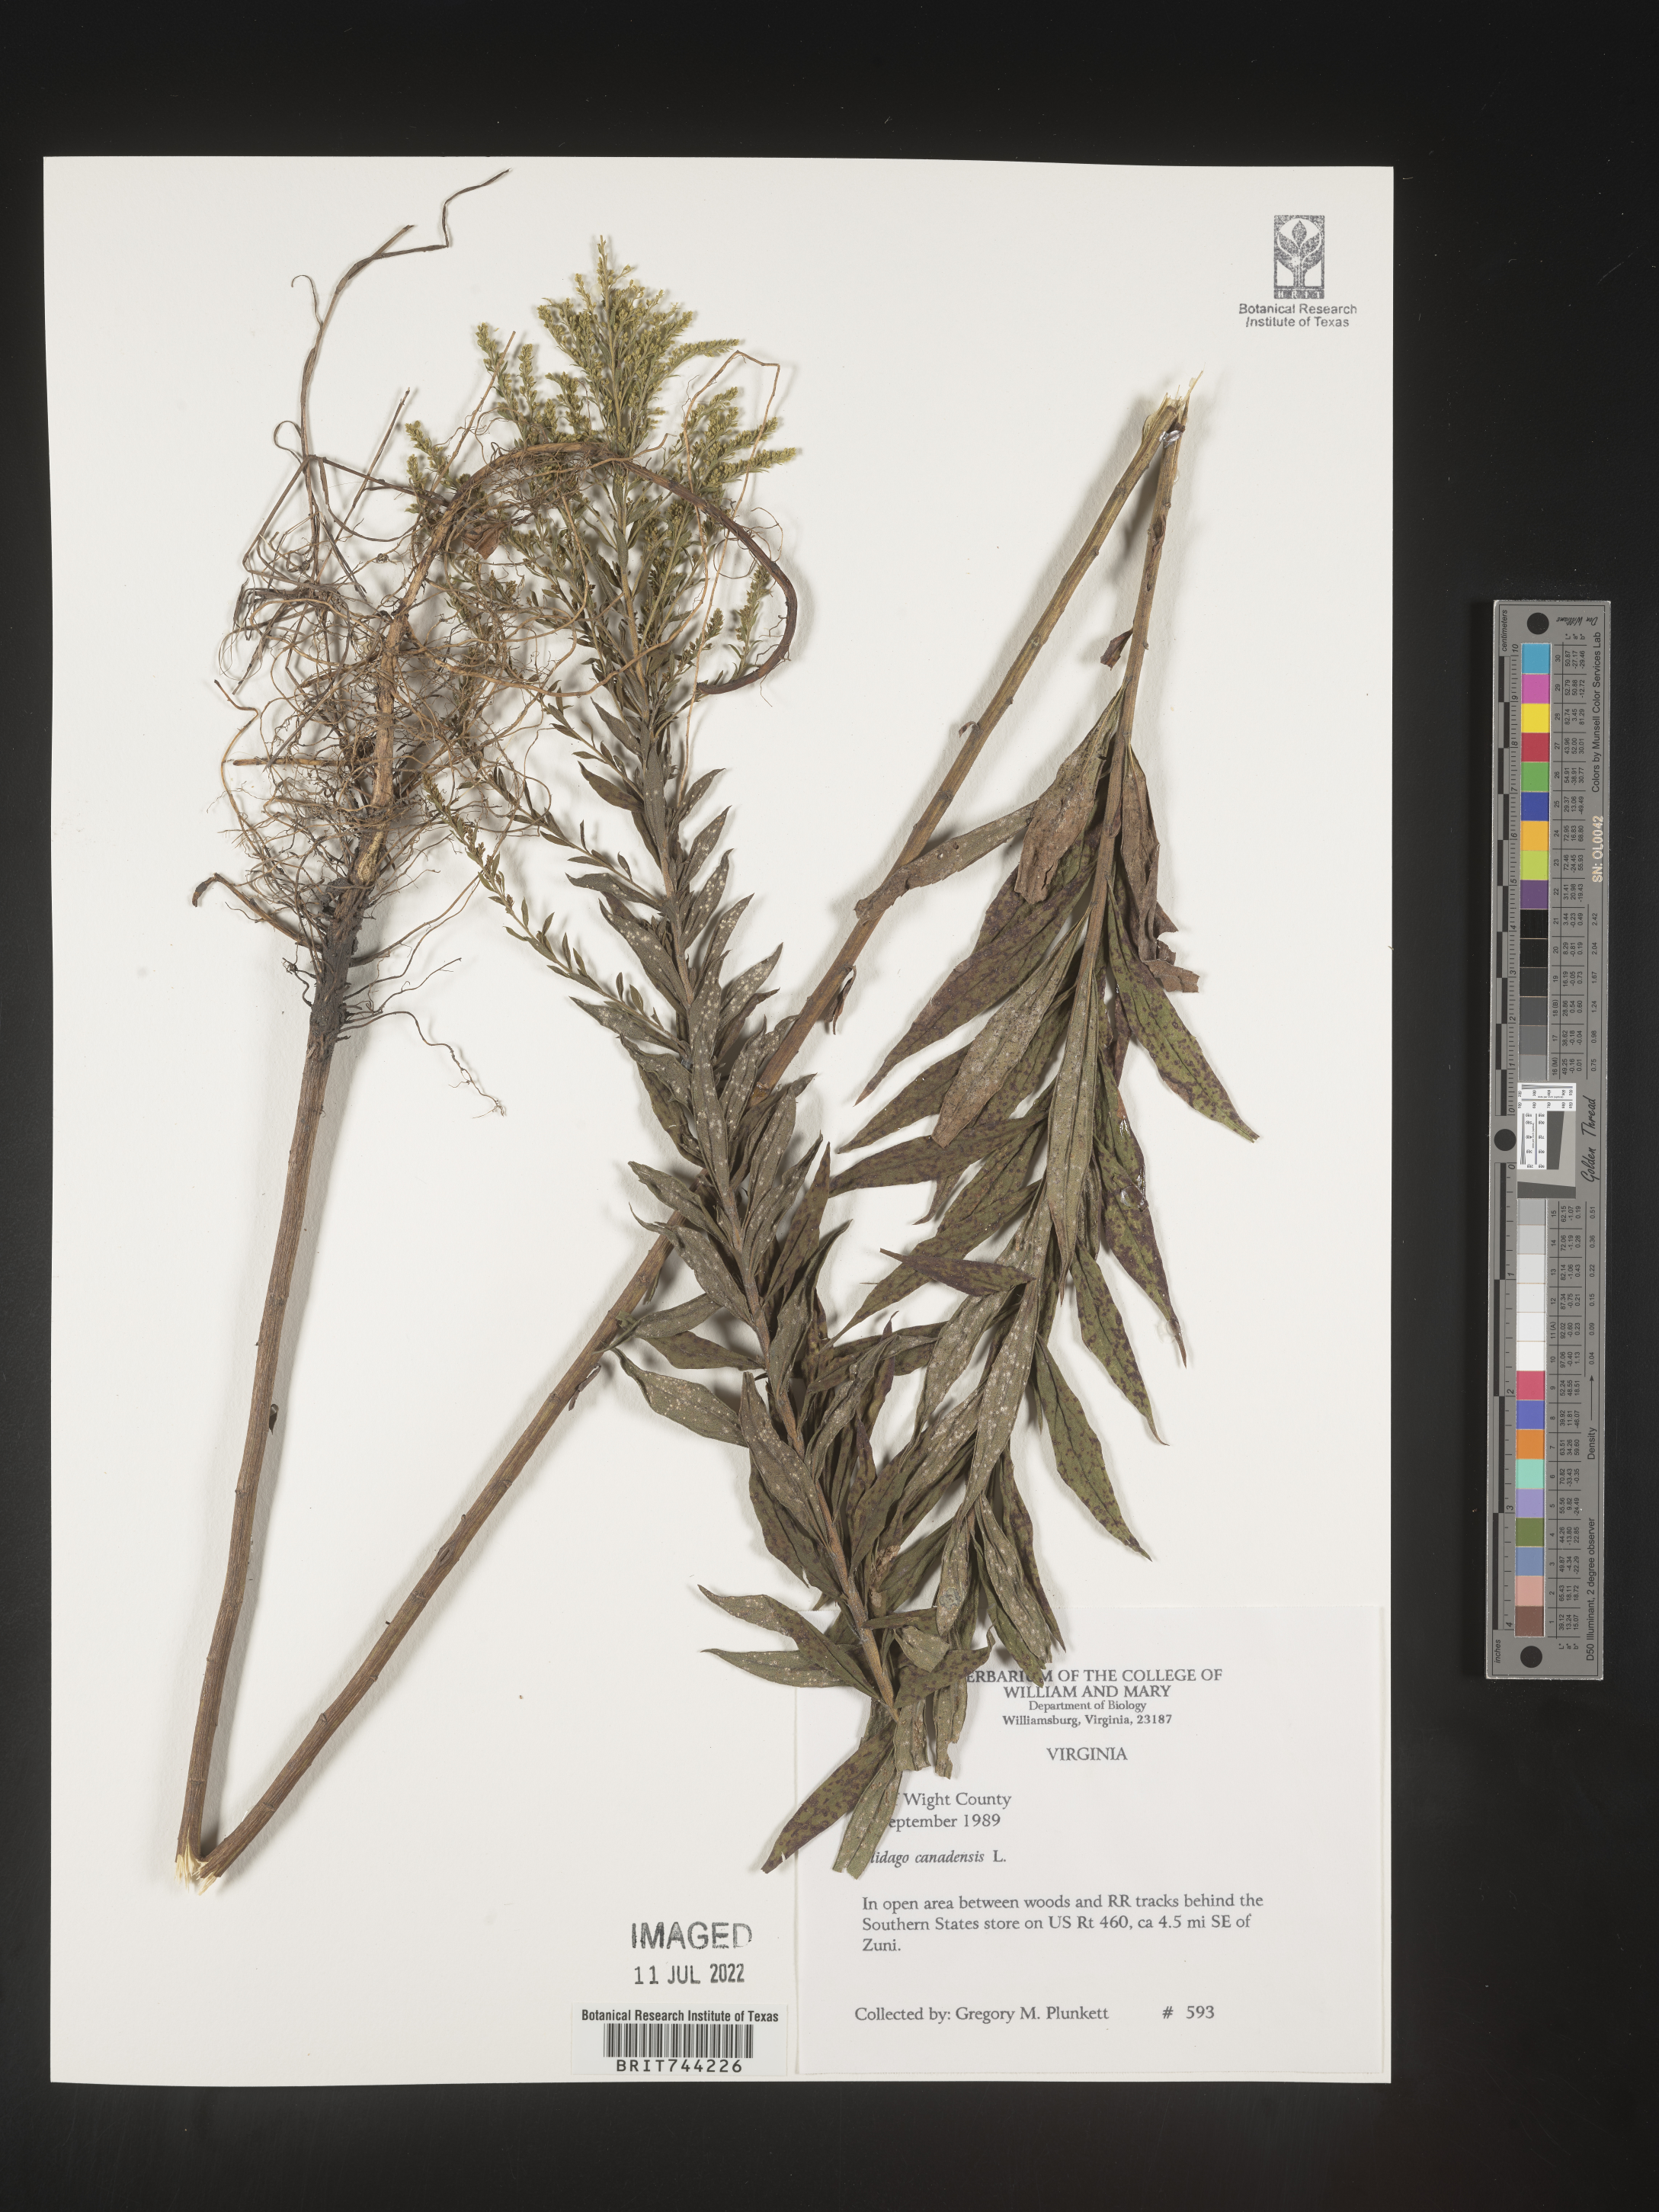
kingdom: Plantae
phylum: Tracheophyta
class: Magnoliopsida
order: Asterales
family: Asteraceae
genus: Solidago
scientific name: Solidago altissima
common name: Late goldenrod
